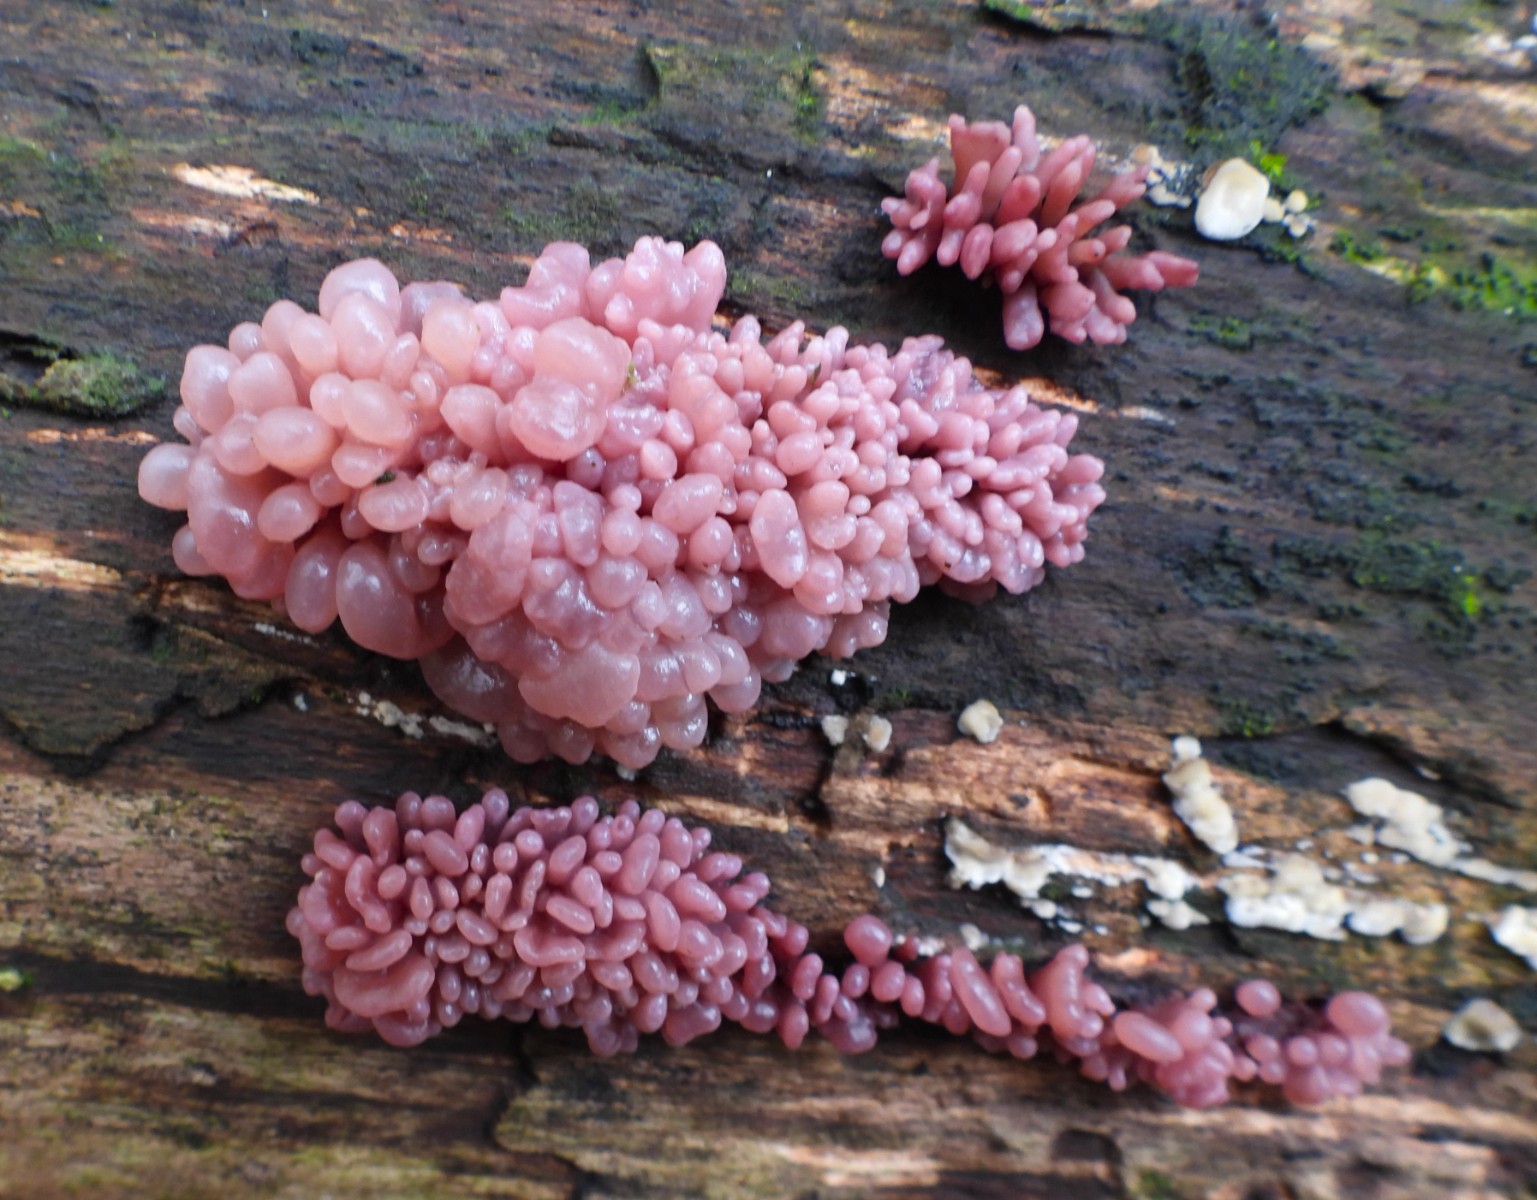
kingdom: Fungi
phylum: Ascomycota
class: Leotiomycetes
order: Helotiales
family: Gelatinodiscaceae
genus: Ascocoryne
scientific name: Ascocoryne sarcoides
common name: rødlilla sejskive
